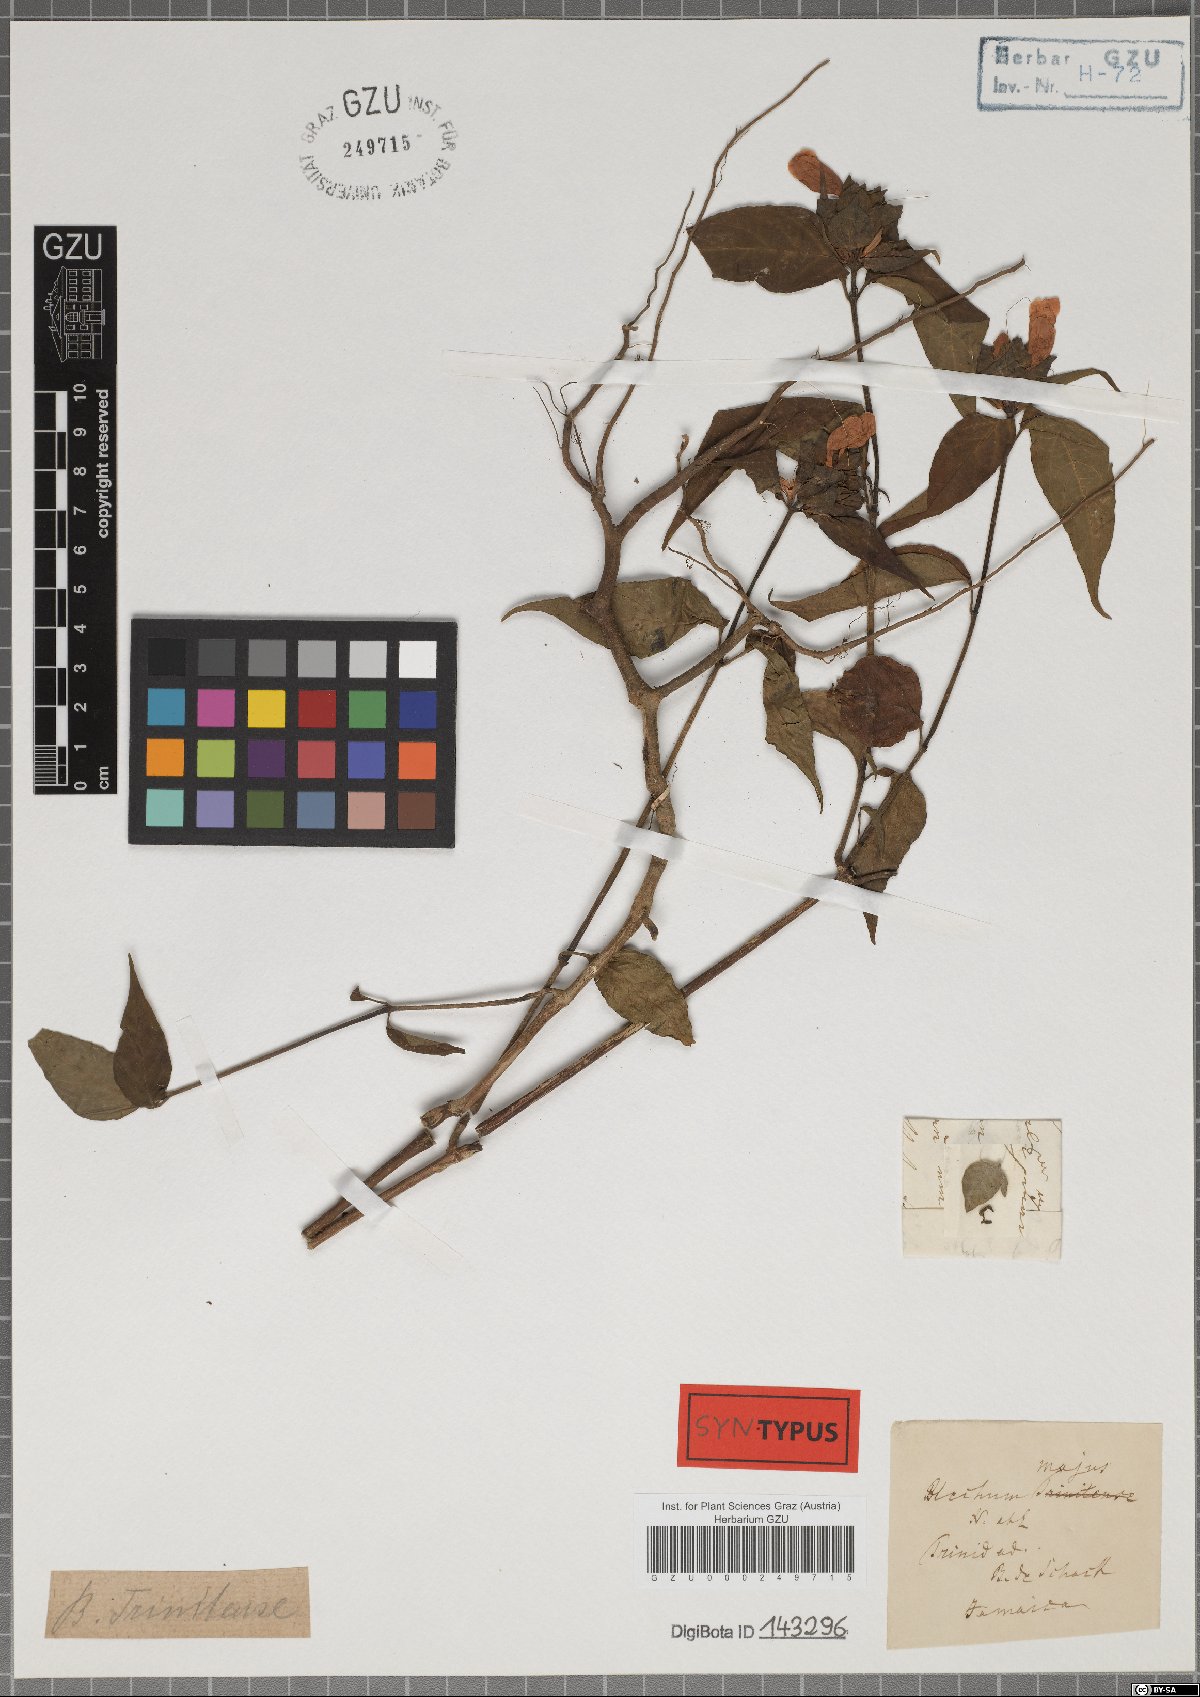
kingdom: Plantae
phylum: Tracheophyta
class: Magnoliopsida
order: Lamiales
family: Acanthaceae
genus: Ruellia
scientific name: Ruellia blechum
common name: Browne's blechum
